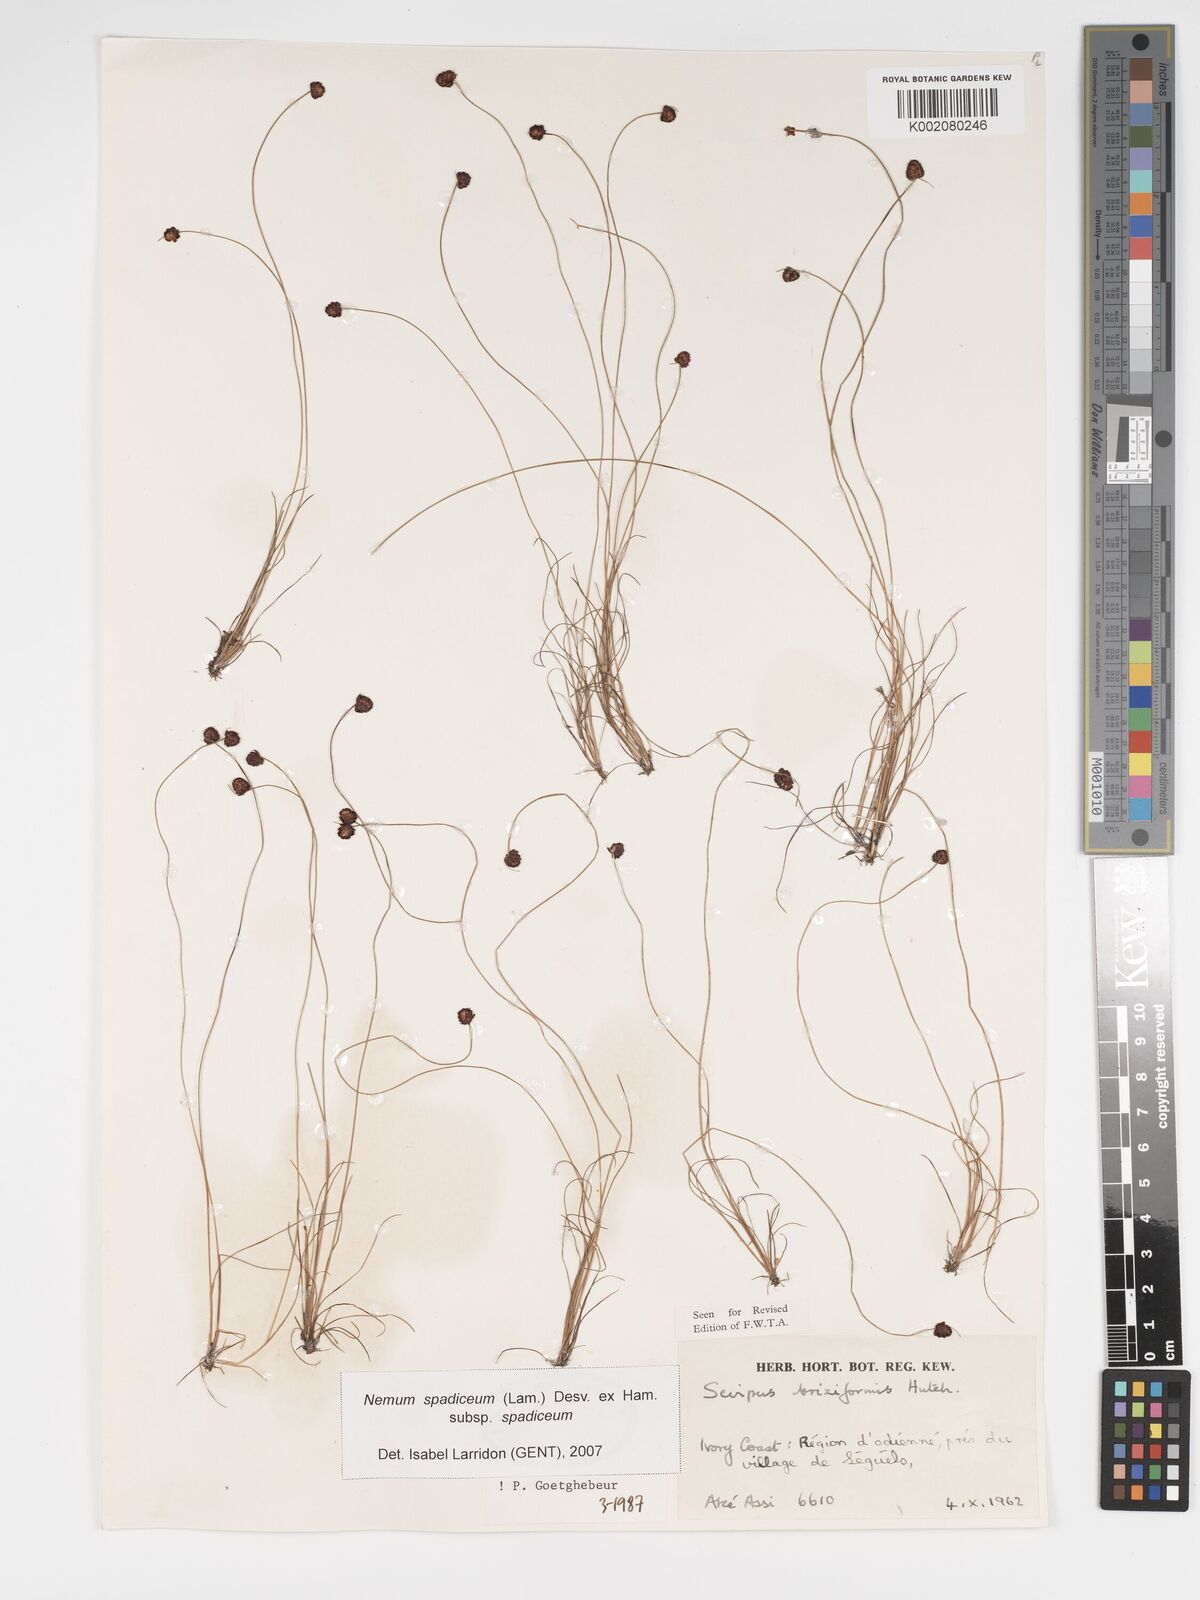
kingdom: Plantae
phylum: Tracheophyta
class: Liliopsida
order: Poales
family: Cyperaceae
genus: Bulbostylis
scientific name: Bulbostylis briziformis
